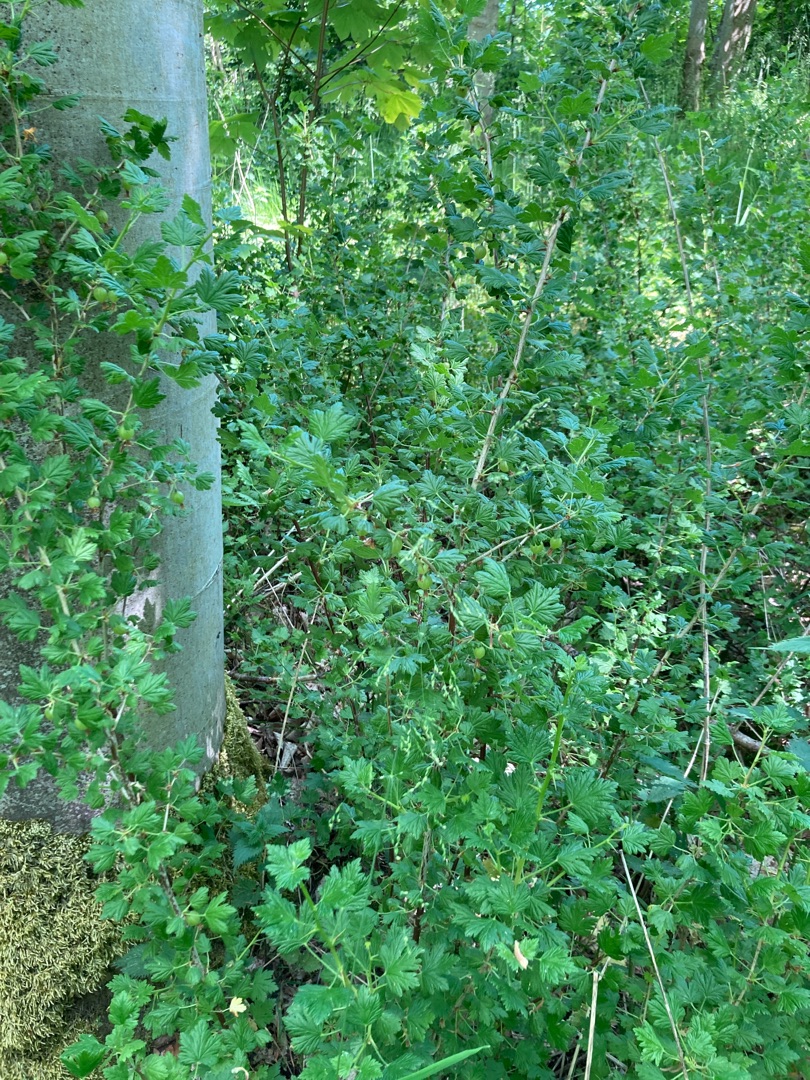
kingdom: Plantae
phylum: Tracheophyta
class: Magnoliopsida
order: Saxifragales
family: Grossulariaceae
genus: Ribes
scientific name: Ribes uva-crispa
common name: Stikkelsbær
